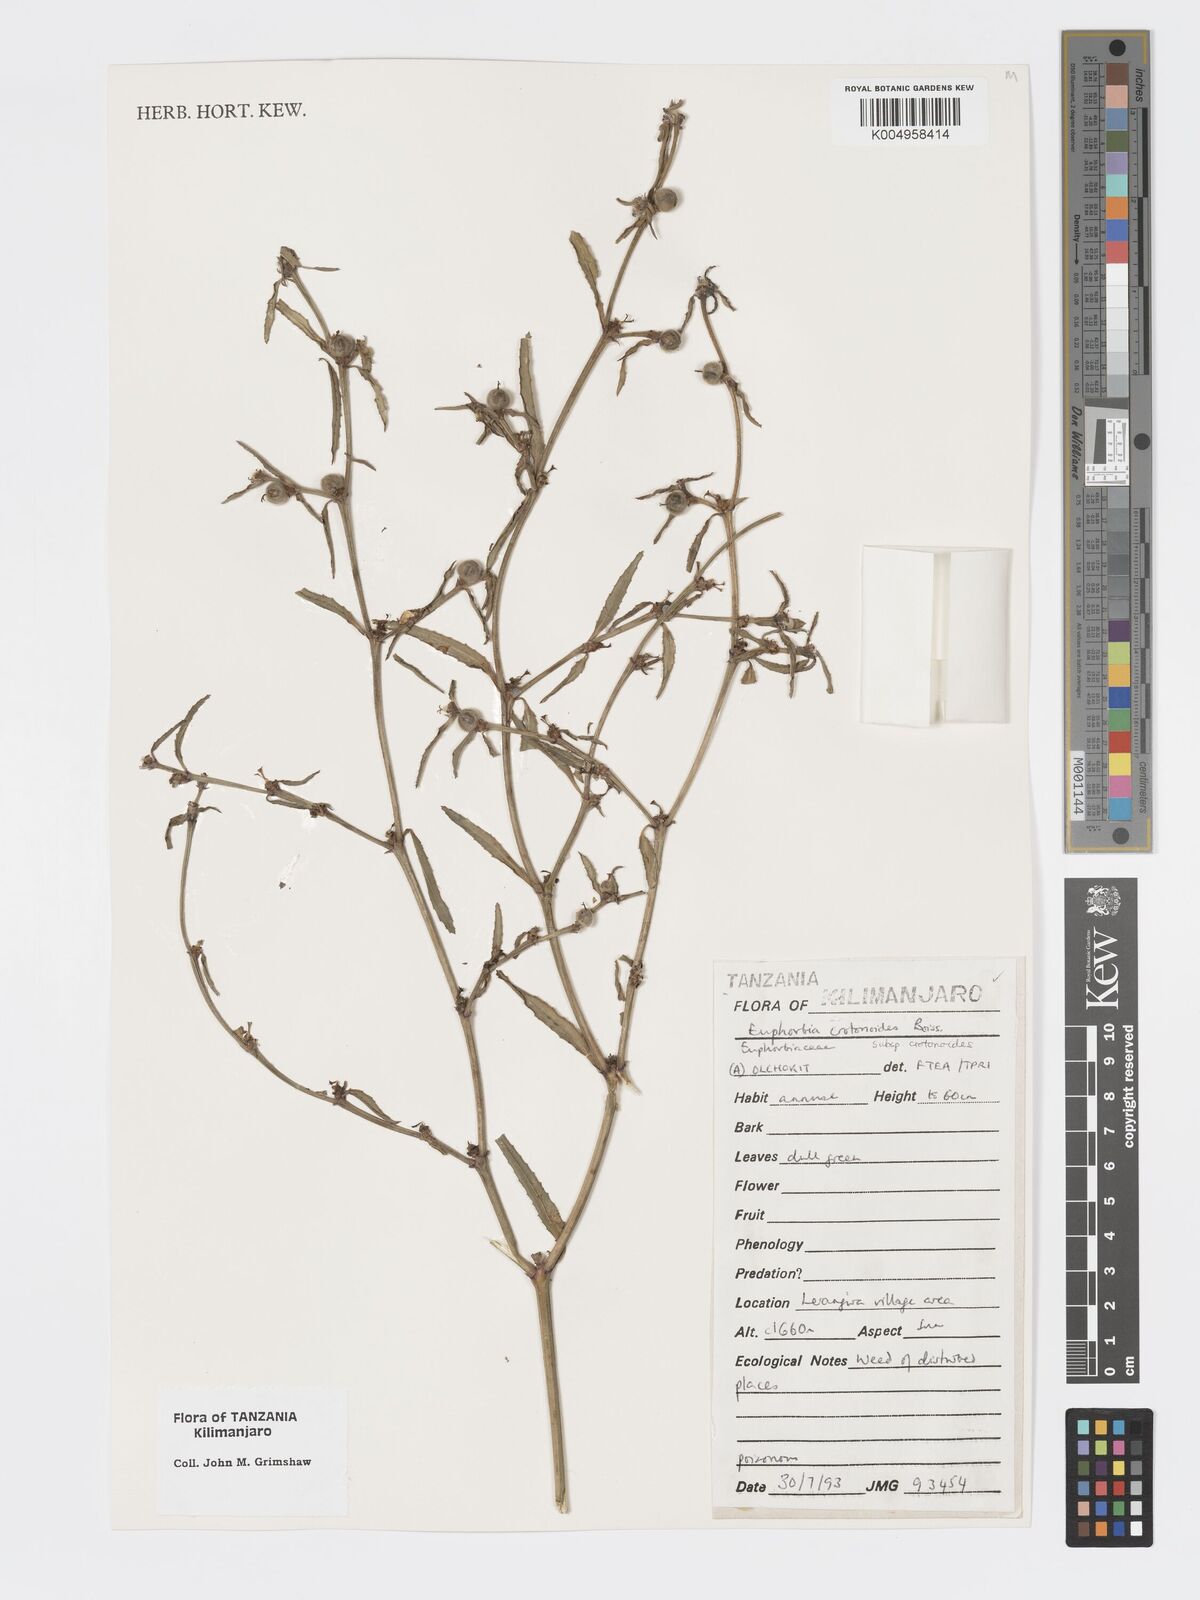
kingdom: Plantae
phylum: Tracheophyta
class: Magnoliopsida
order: Malpighiales
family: Euphorbiaceae
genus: Euphorbia
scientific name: Euphorbia crotonoides
